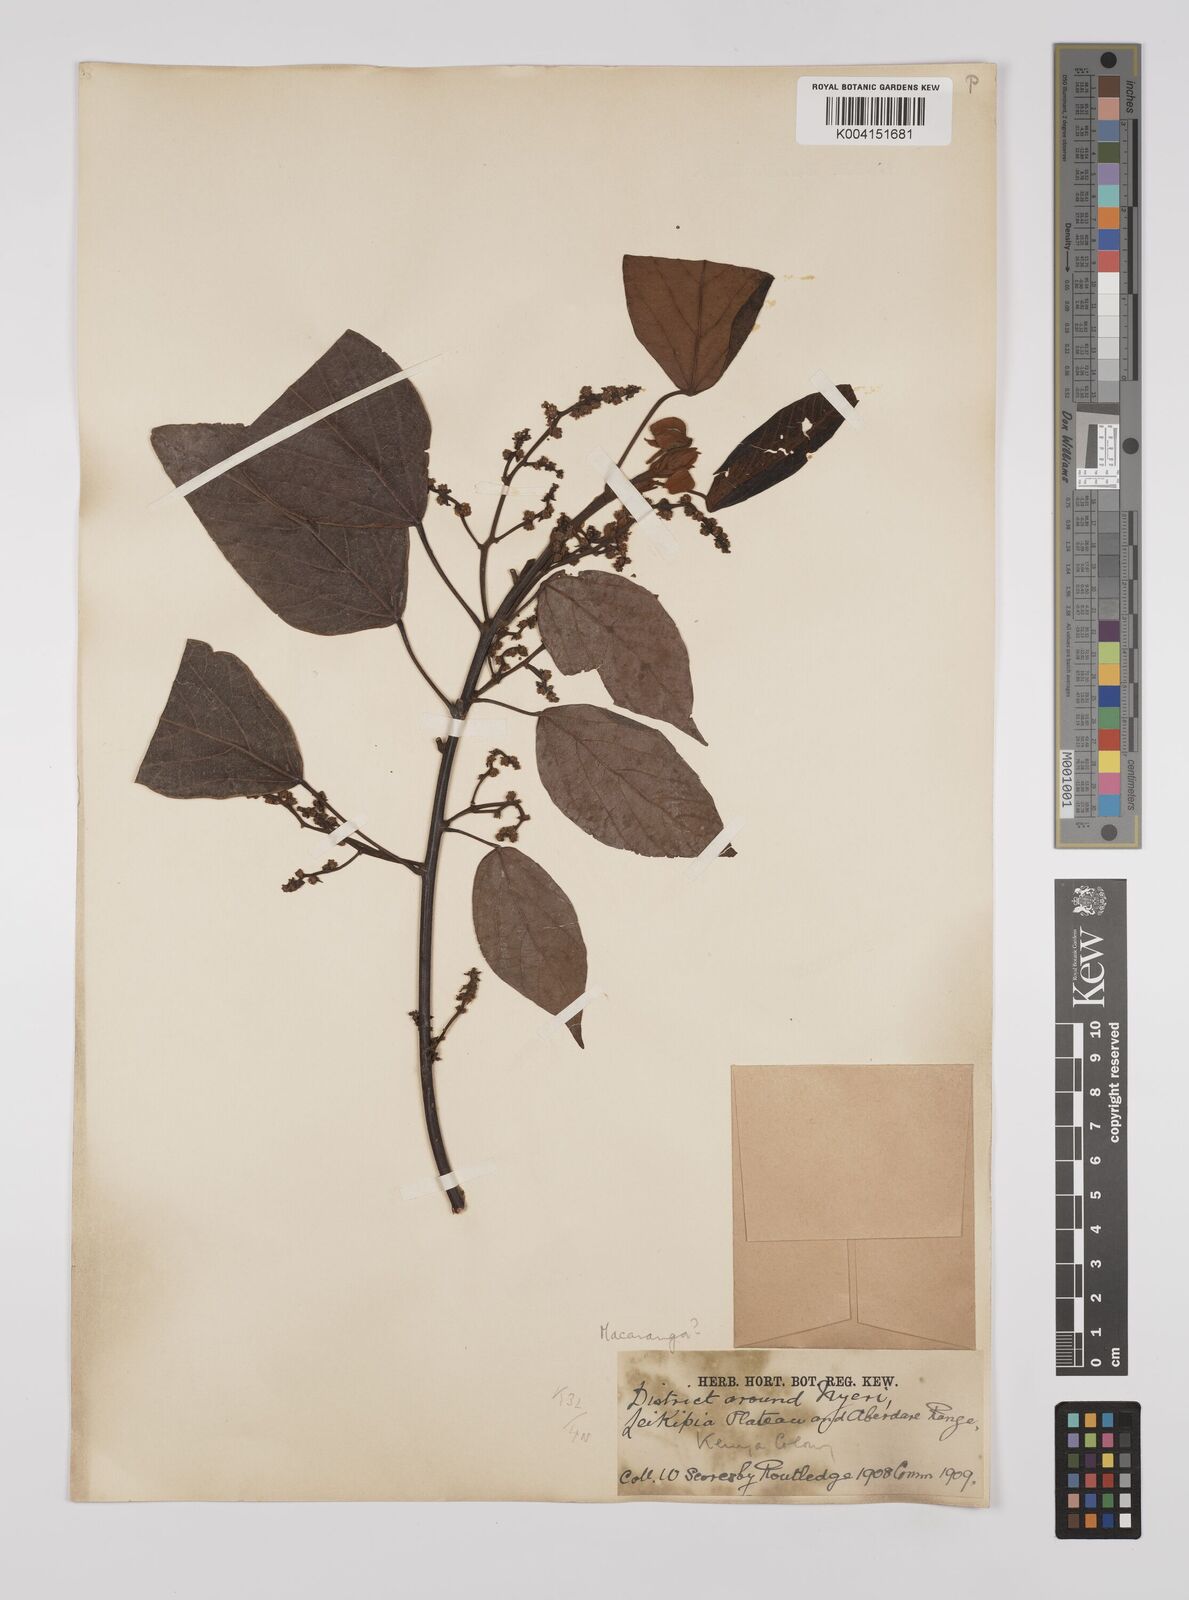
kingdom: Plantae
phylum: Tracheophyta
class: Magnoliopsida
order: Malpighiales
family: Euphorbiaceae
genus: Macaranga
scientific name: Macaranga kilimandscharica
